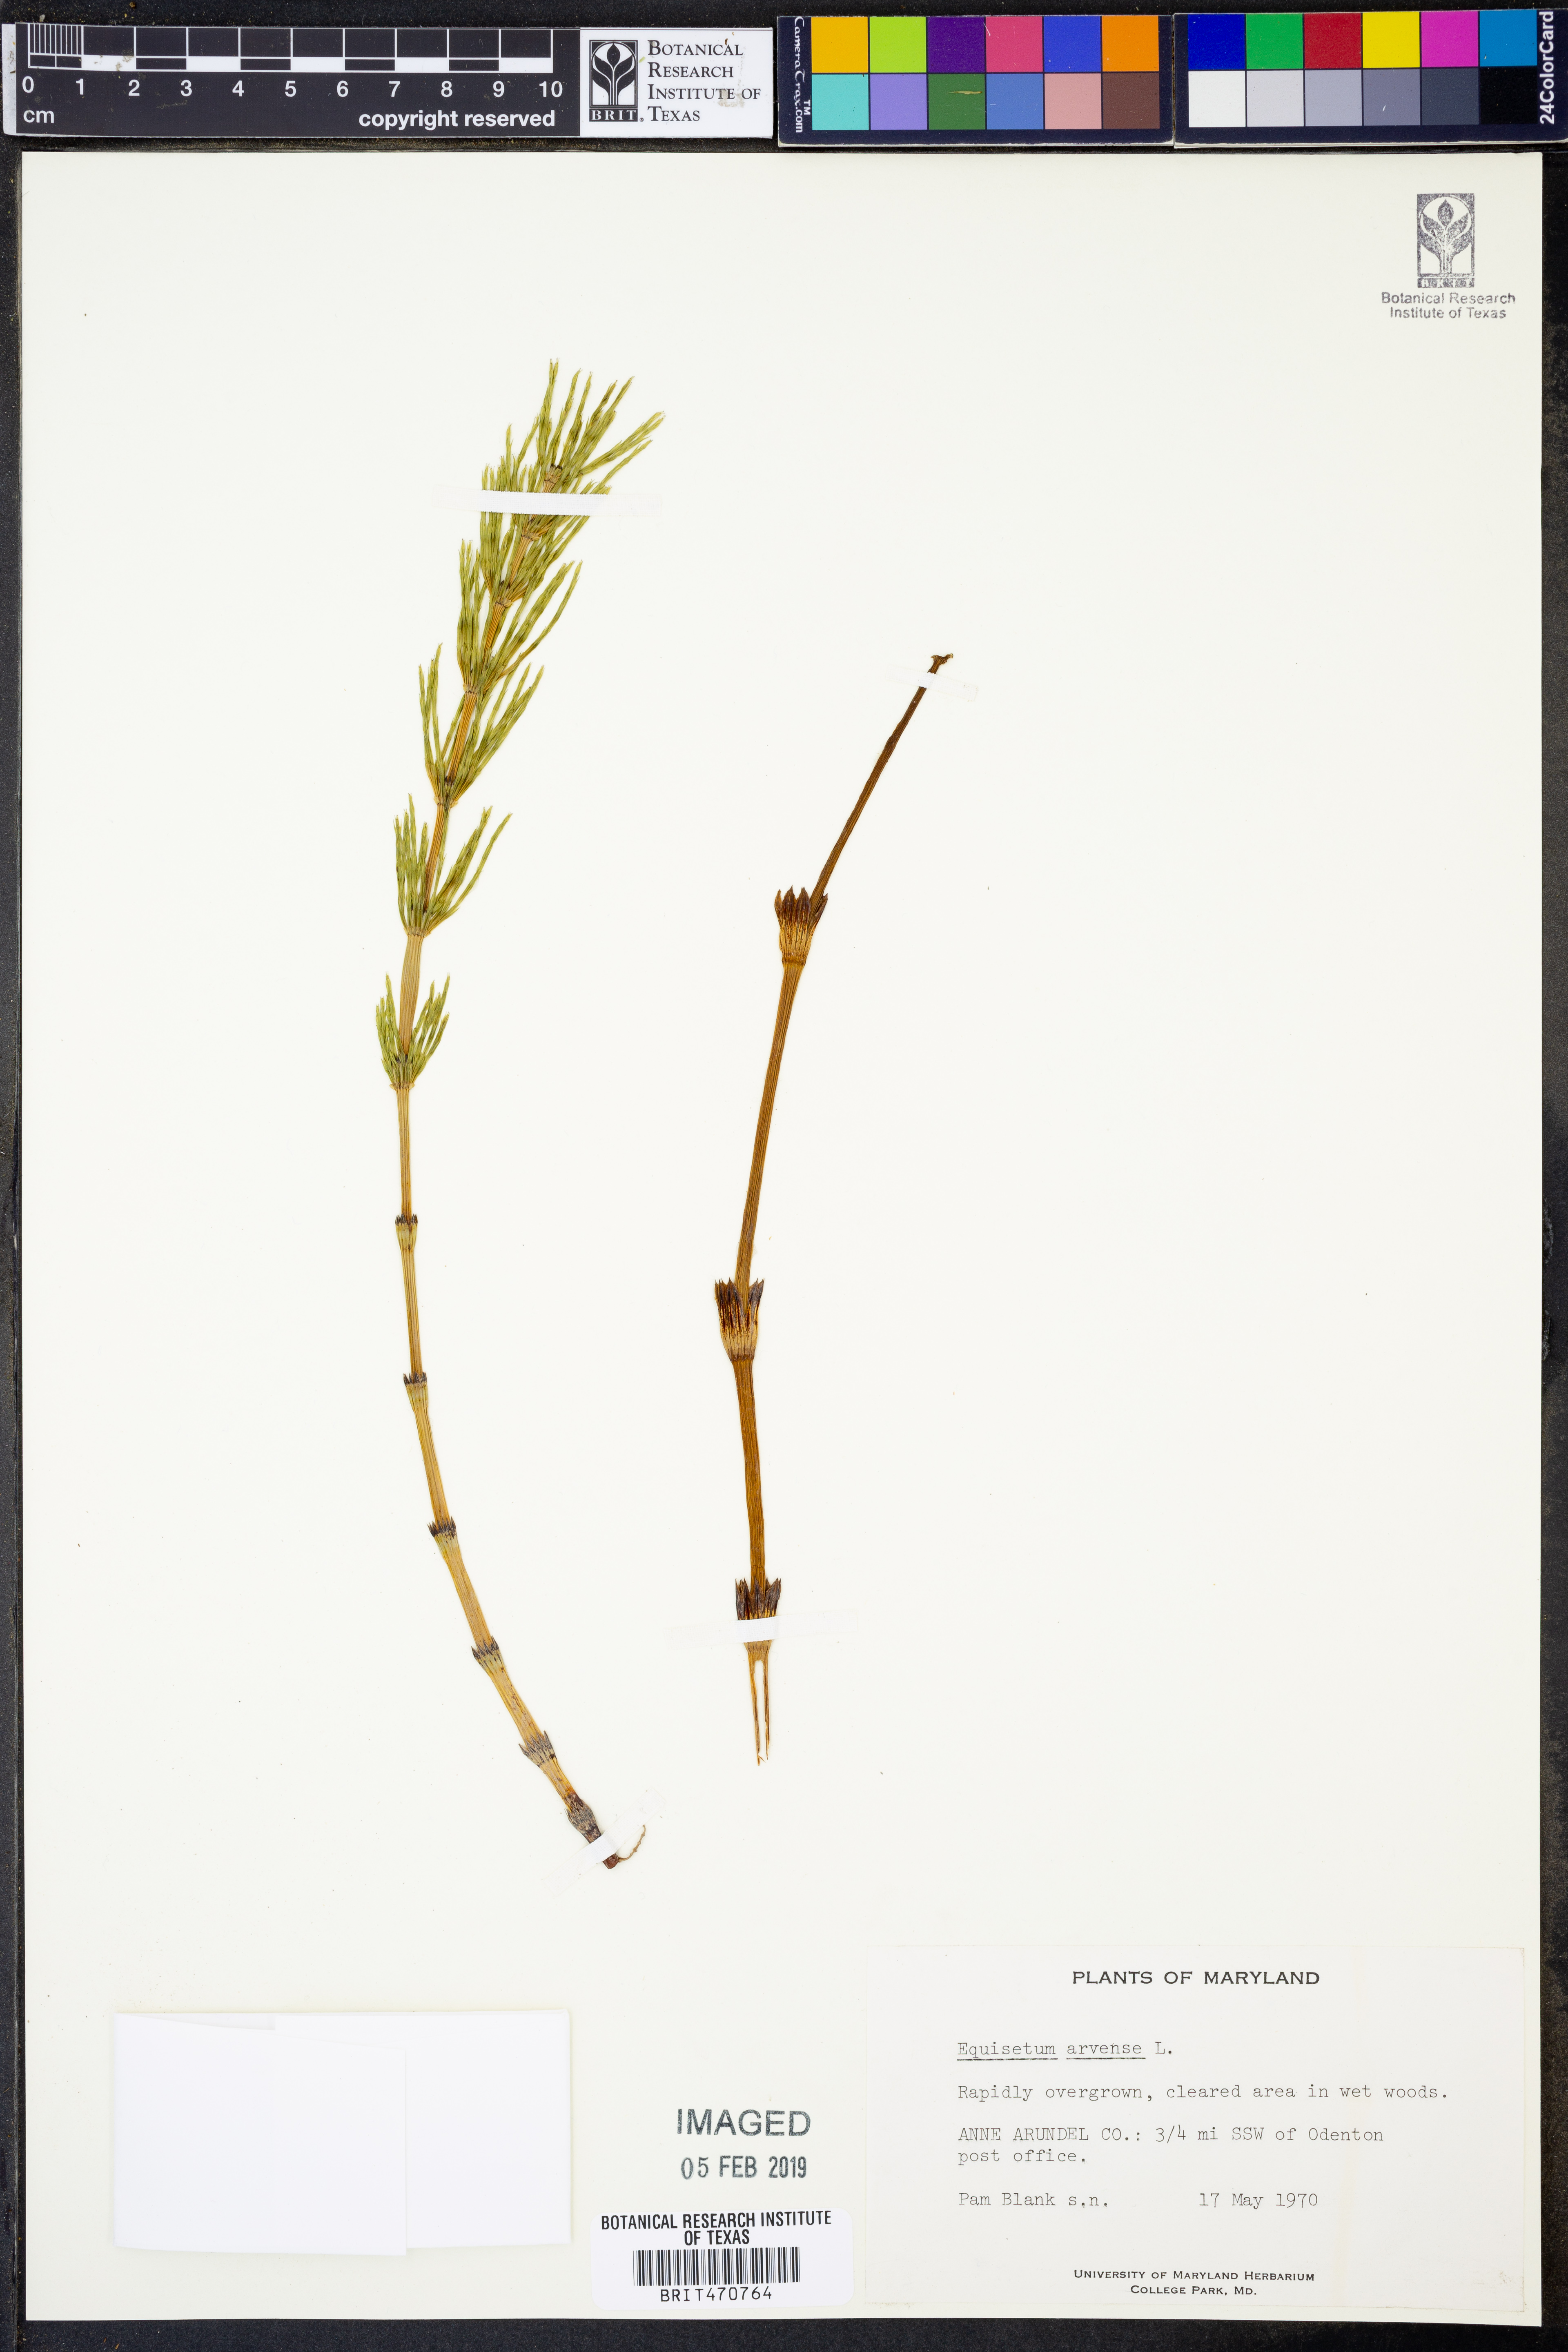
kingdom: Plantae
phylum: Tracheophyta
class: Polypodiopsida
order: Equisetales
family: Equisetaceae
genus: Equisetum
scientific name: Equisetum arvense
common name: Field horsetail
